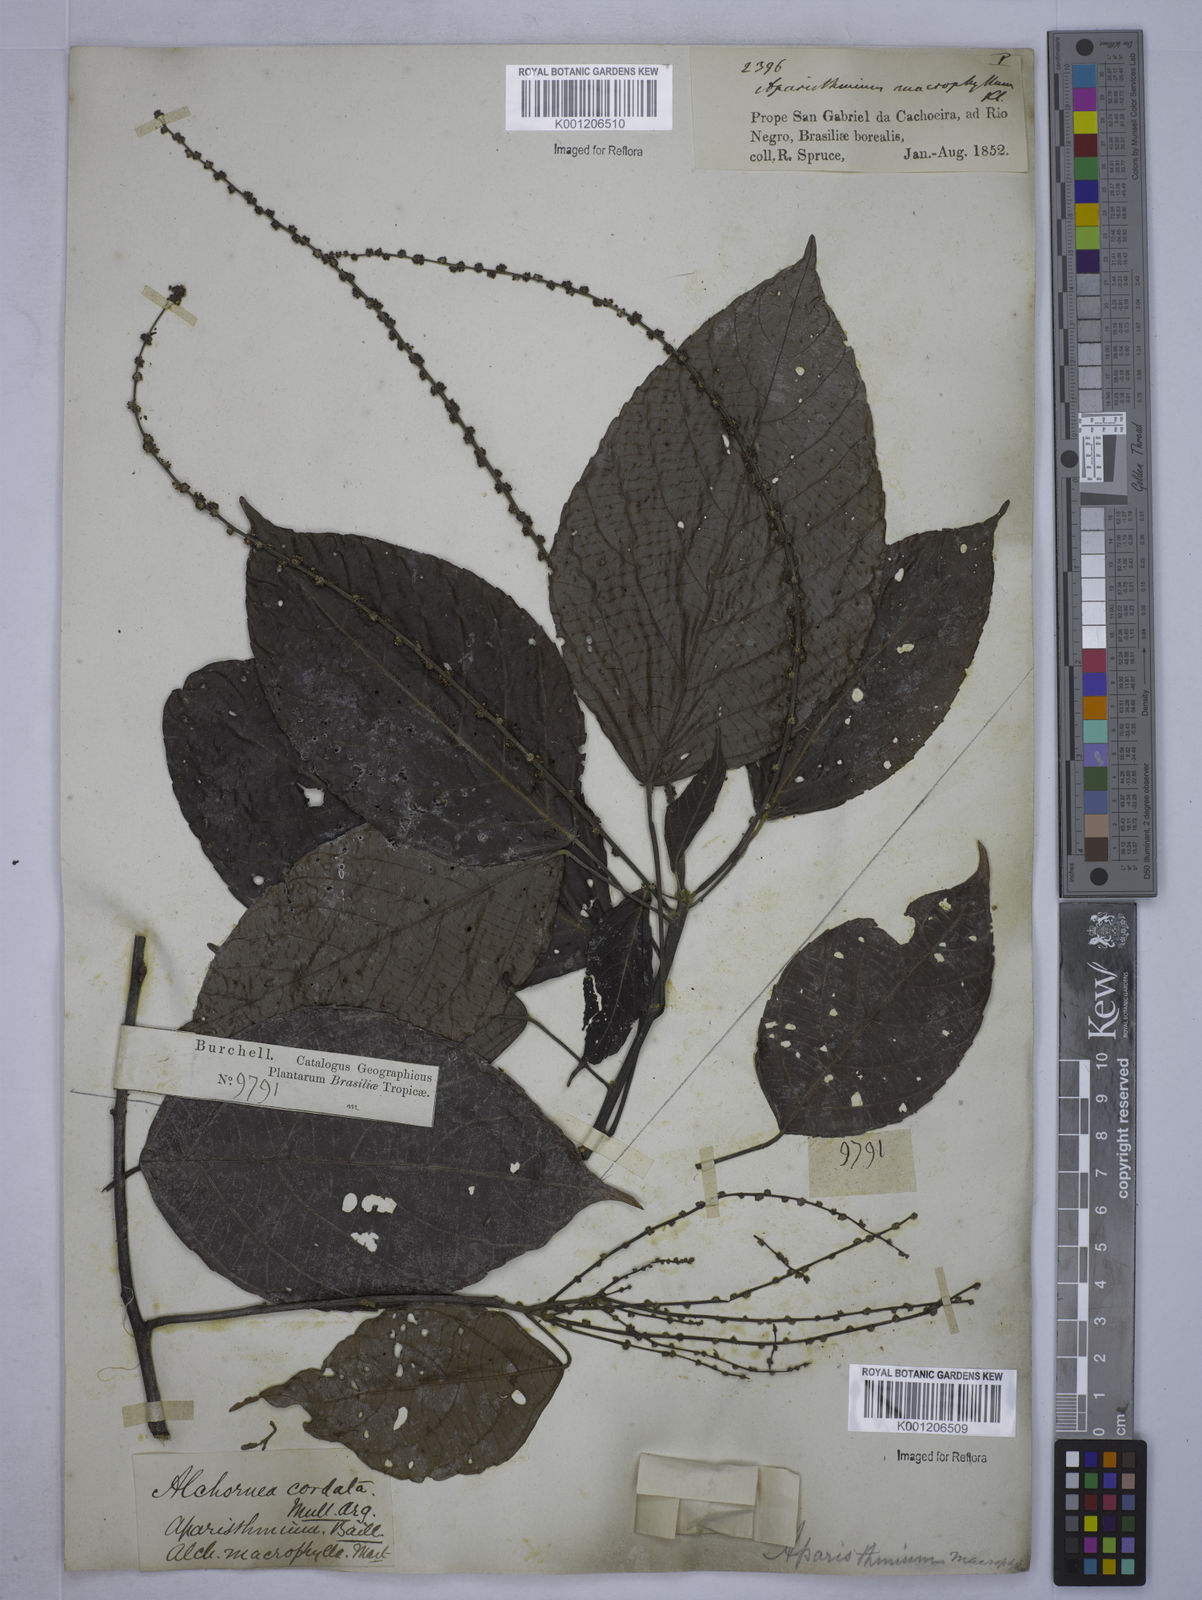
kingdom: Plantae
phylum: Tracheophyta
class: Magnoliopsida
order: Malpighiales
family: Euphorbiaceae
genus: Aparisthmium
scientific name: Aparisthmium cordatum
